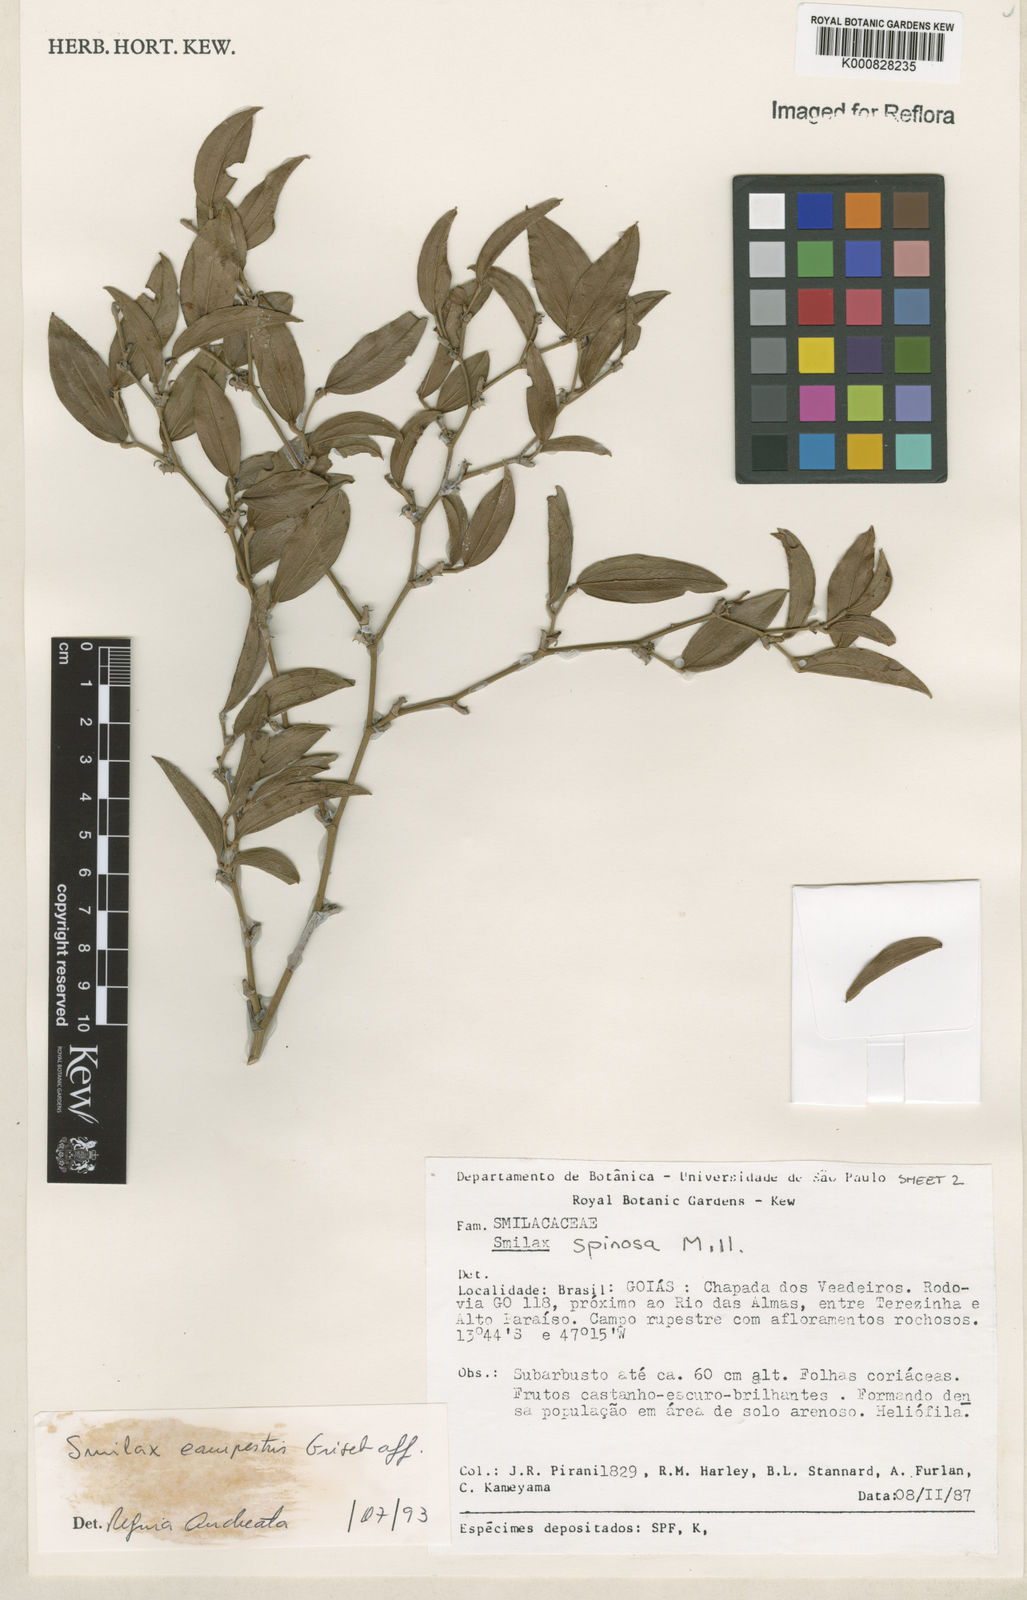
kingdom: Plantae
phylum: Tracheophyta
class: Liliopsida
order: Liliales
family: Smilacaceae
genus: Smilax
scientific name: Smilax campestris
